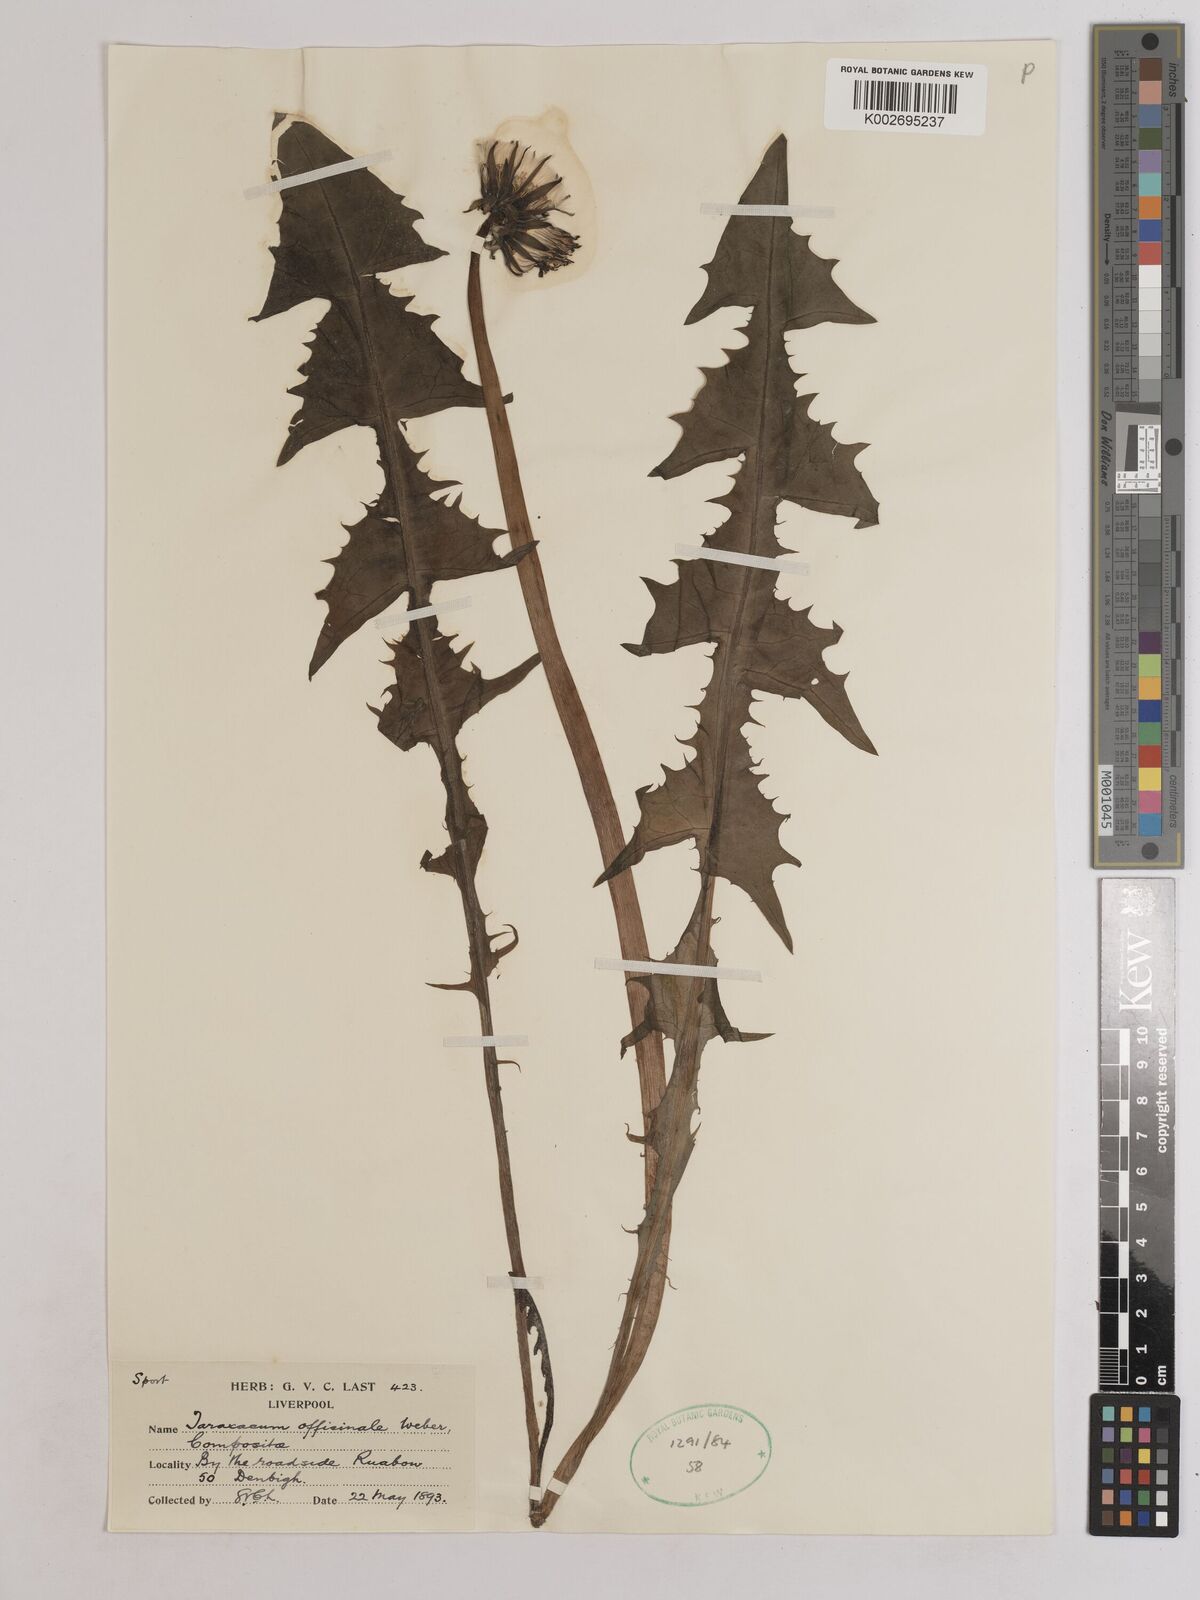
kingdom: Plantae
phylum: Tracheophyta
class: Magnoliopsida
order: Asterales
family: Asteraceae
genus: Taraxacum
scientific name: Taraxacum officinale
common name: Common dandelion
